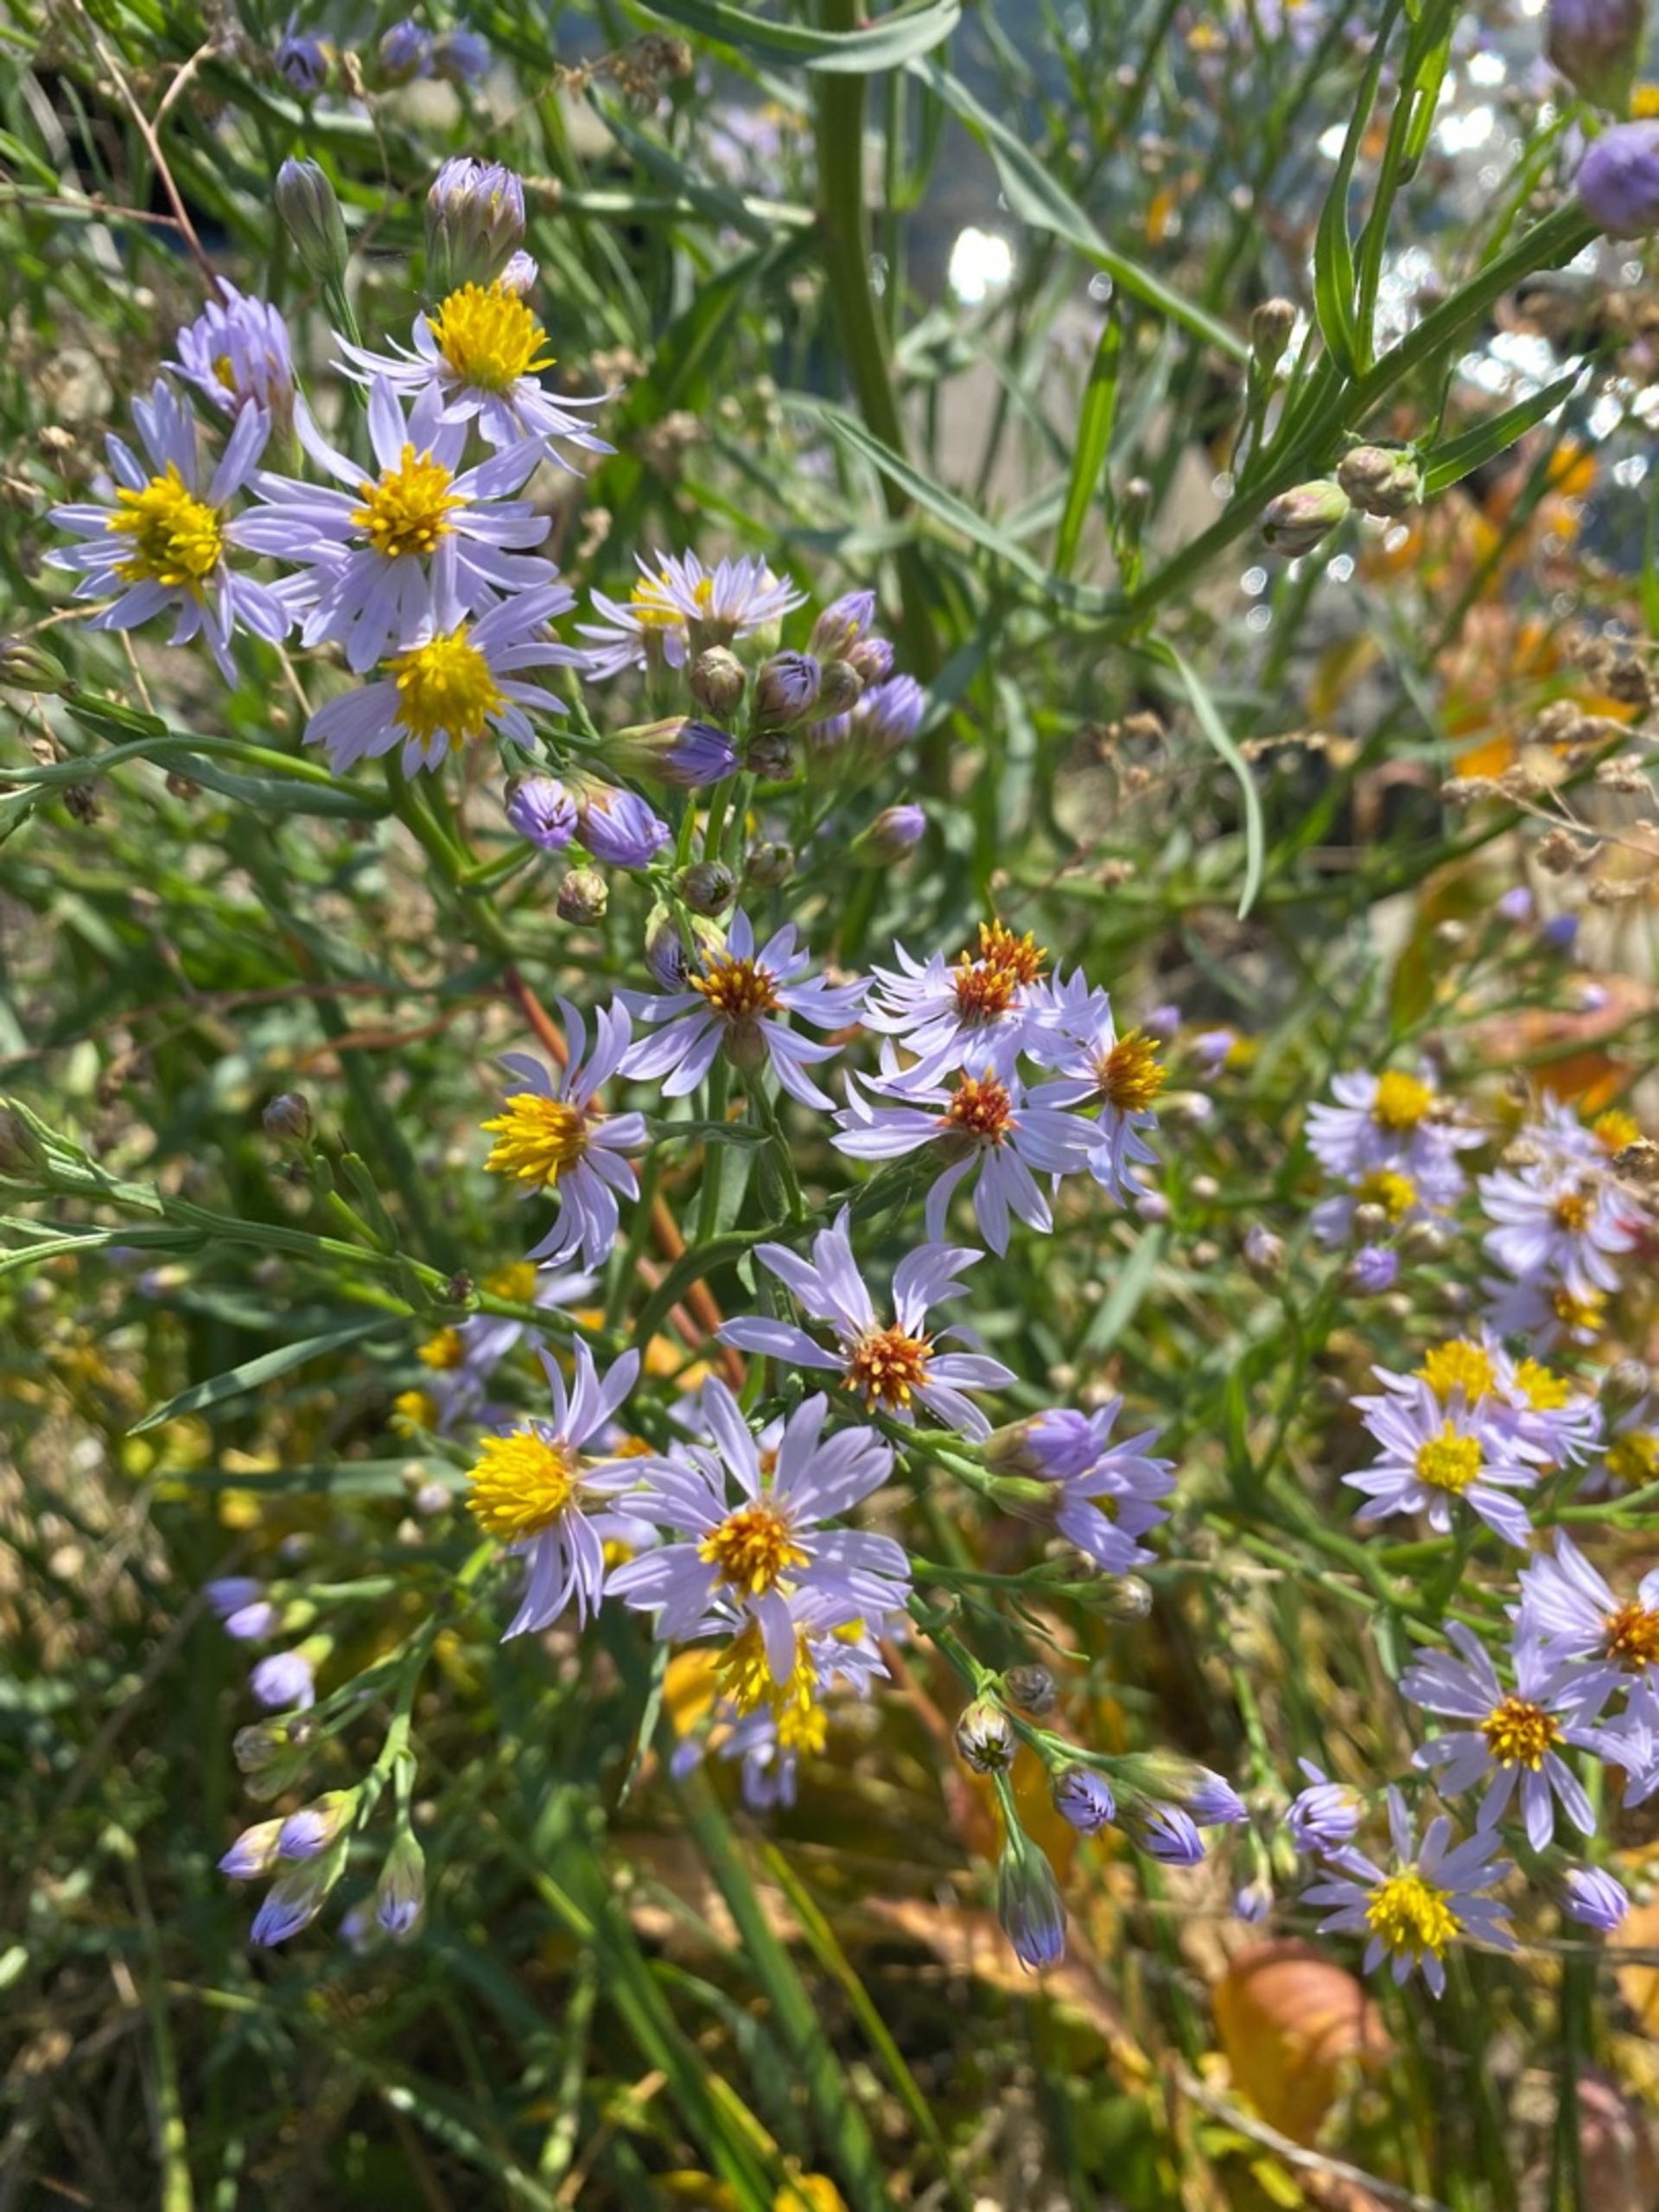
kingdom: Plantae
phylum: Tracheophyta
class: Magnoliopsida
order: Asterales
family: Asteraceae
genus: Tripolium
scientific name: Tripolium pannonicum
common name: Strandasters
